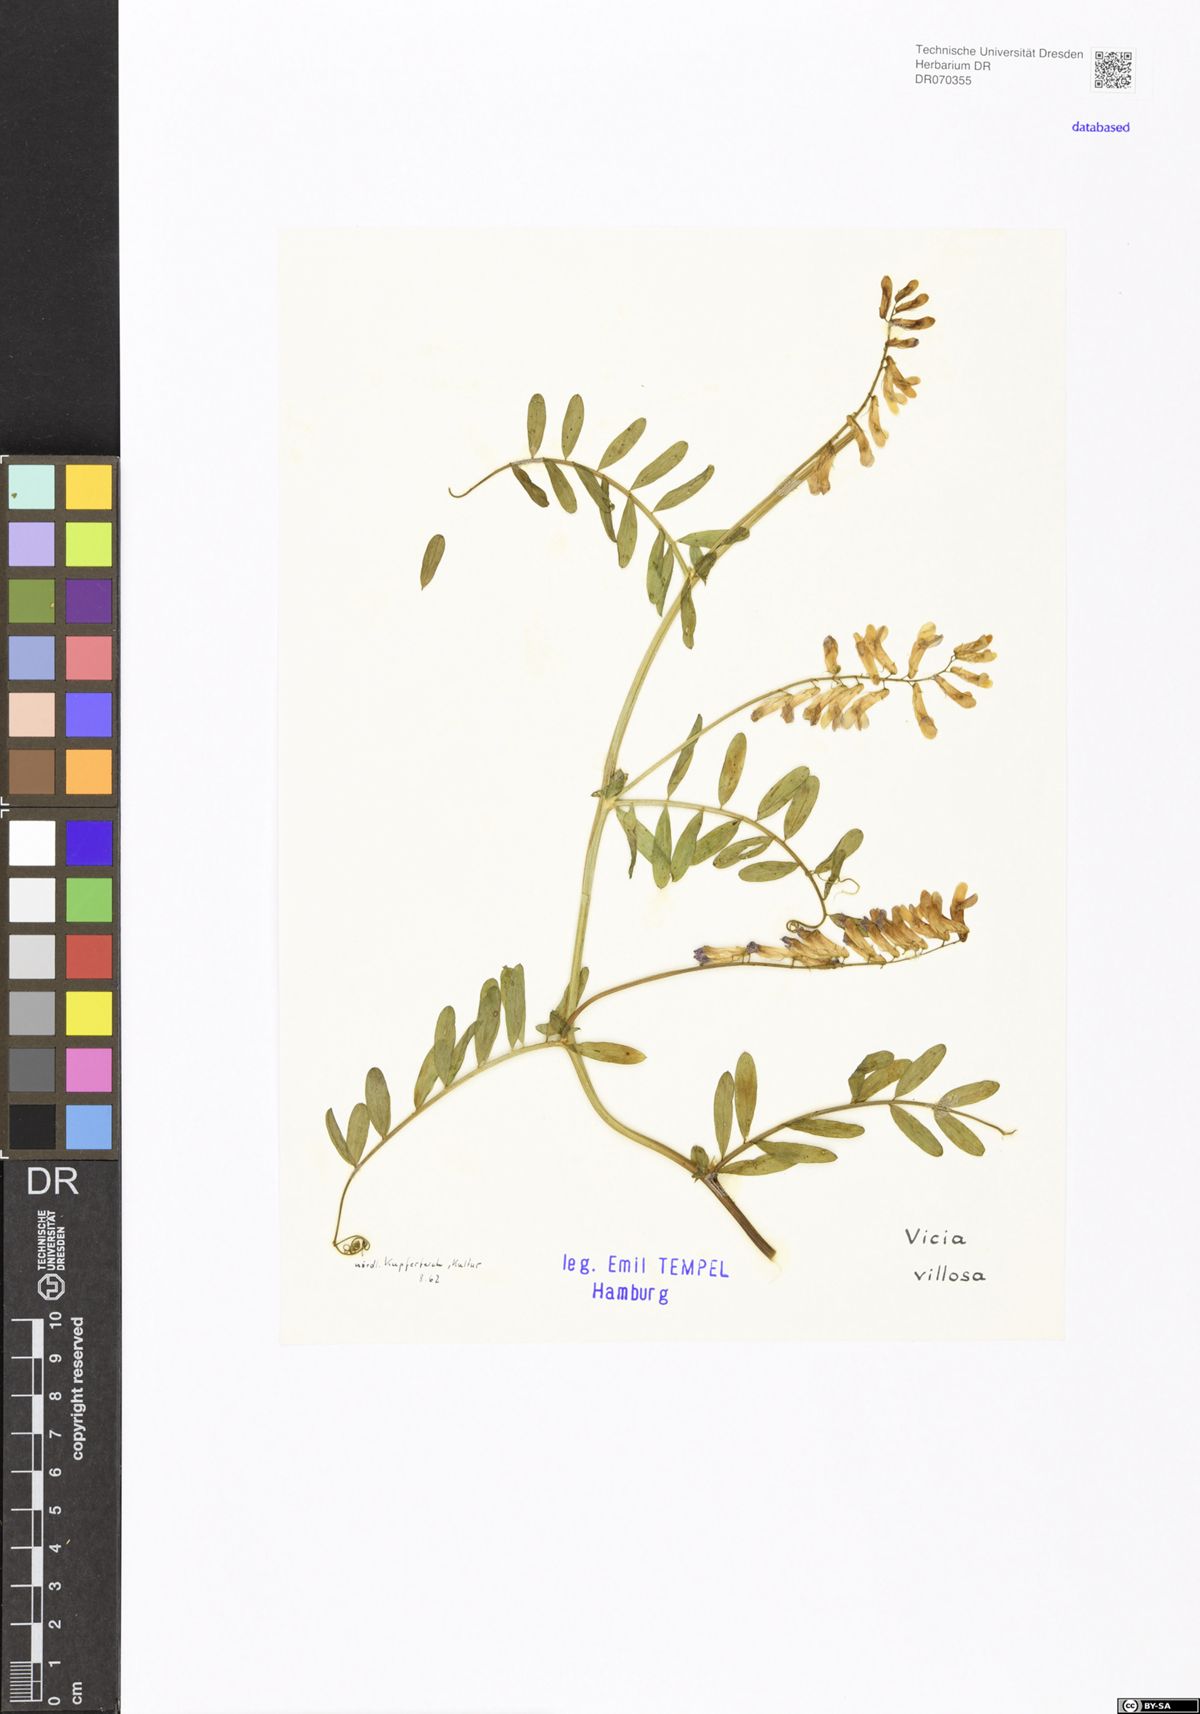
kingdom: Plantae
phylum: Tracheophyta
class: Magnoliopsida
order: Fabales
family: Fabaceae
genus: Vicia
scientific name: Vicia villosa
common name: Fodder vetch
